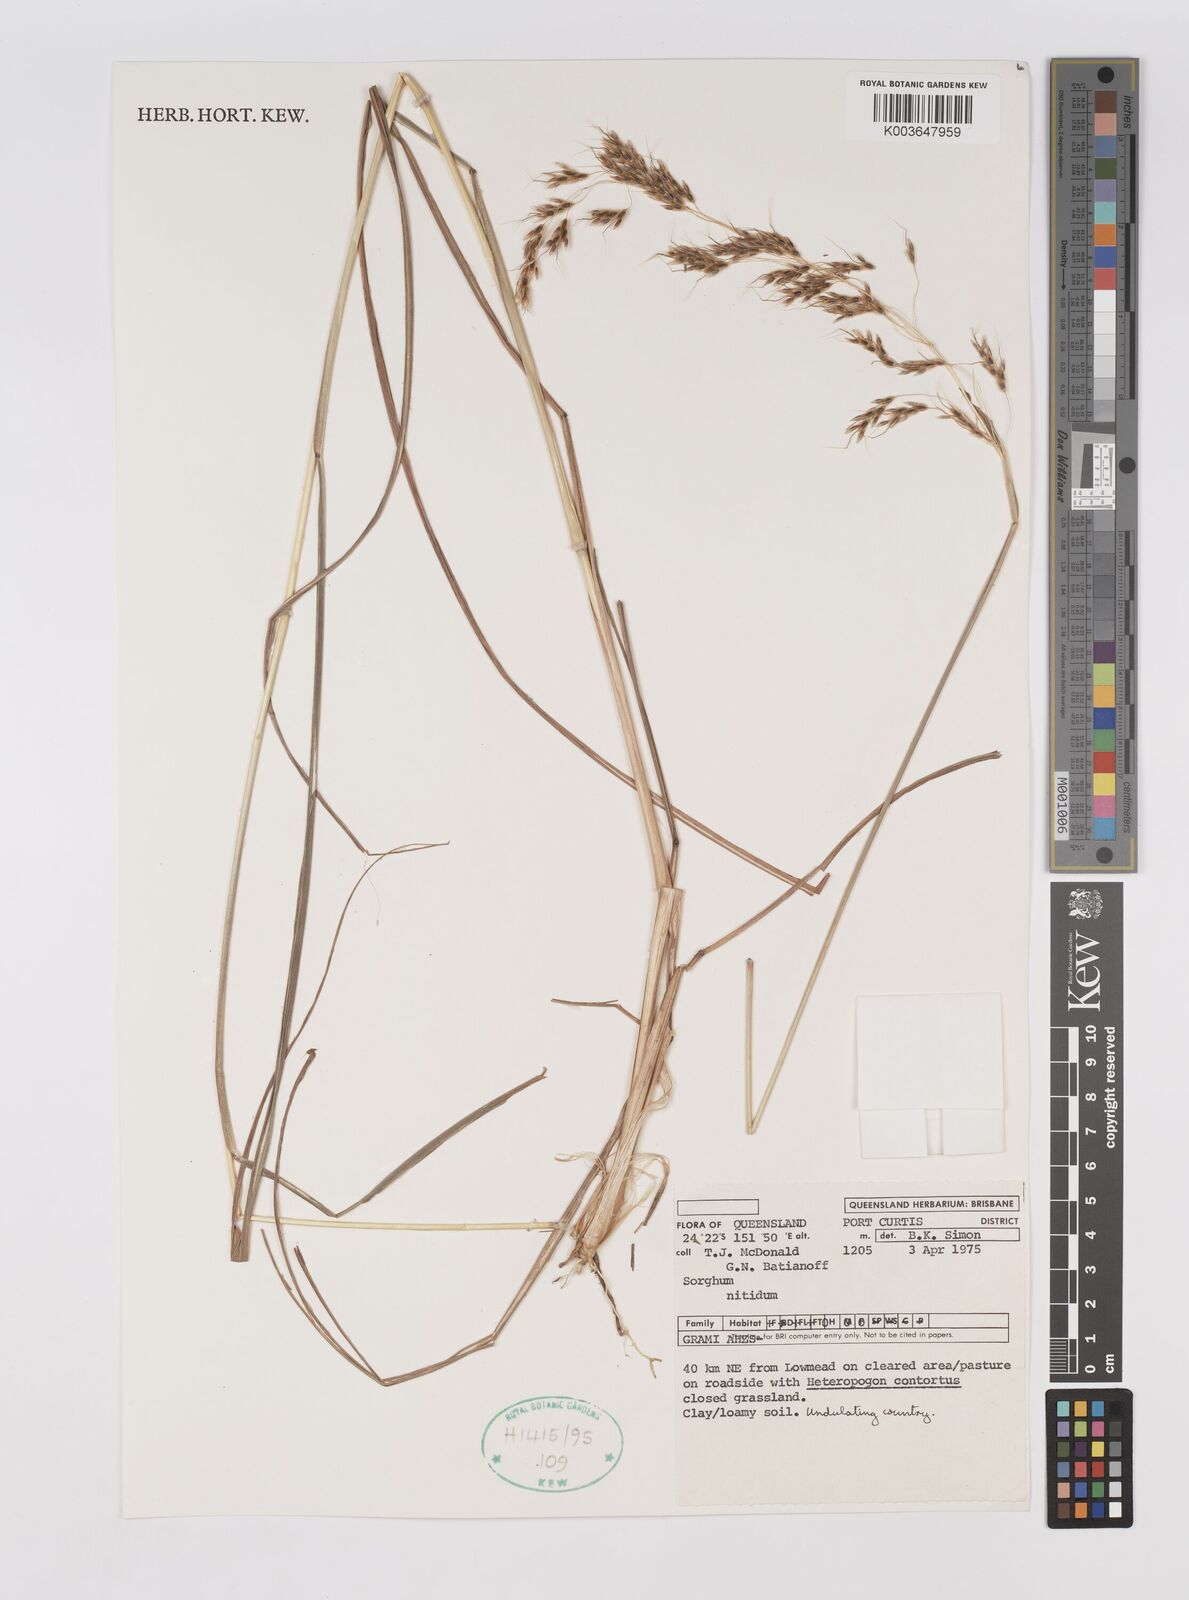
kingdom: Plantae
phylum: Tracheophyta
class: Liliopsida
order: Poales
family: Poaceae
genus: Sorghum
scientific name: Sorghum nitidum
